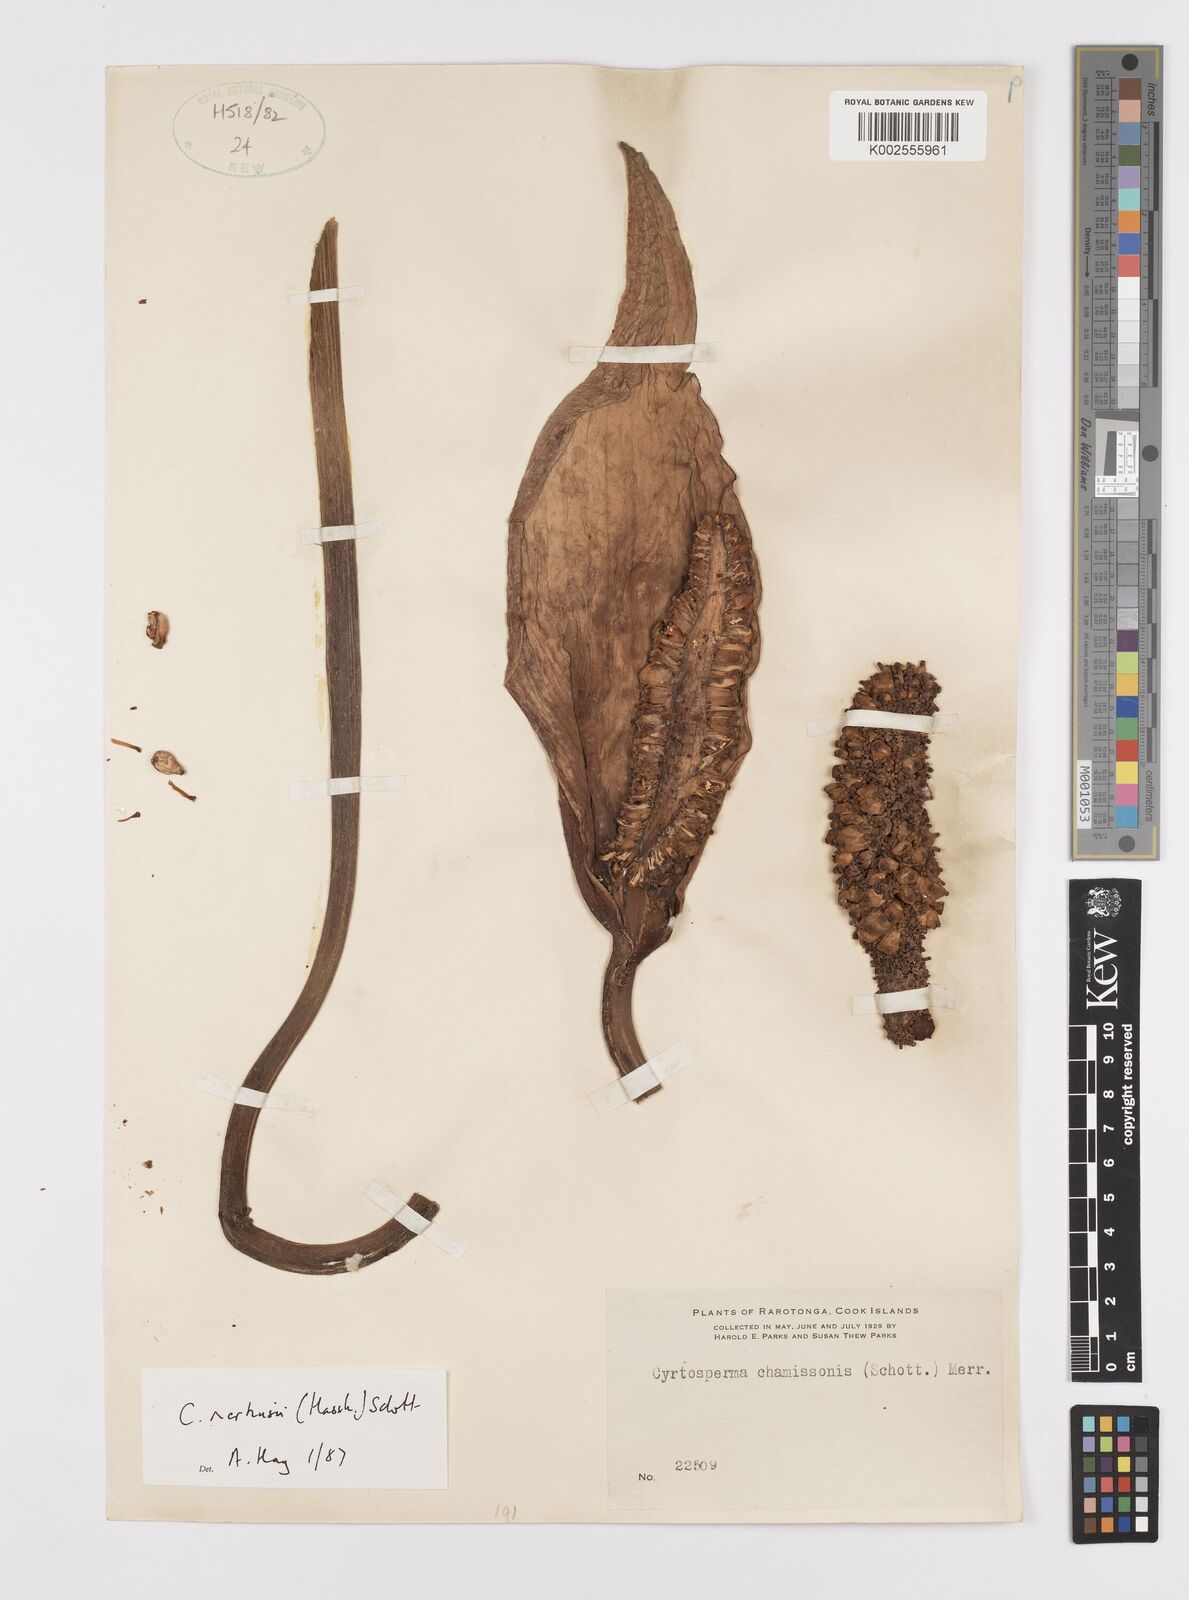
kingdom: Plantae
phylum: Tracheophyta
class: Liliopsida
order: Alismatales
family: Araceae
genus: Cyrtosperma
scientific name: Cyrtosperma merkusii
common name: Giant swamp-taro
